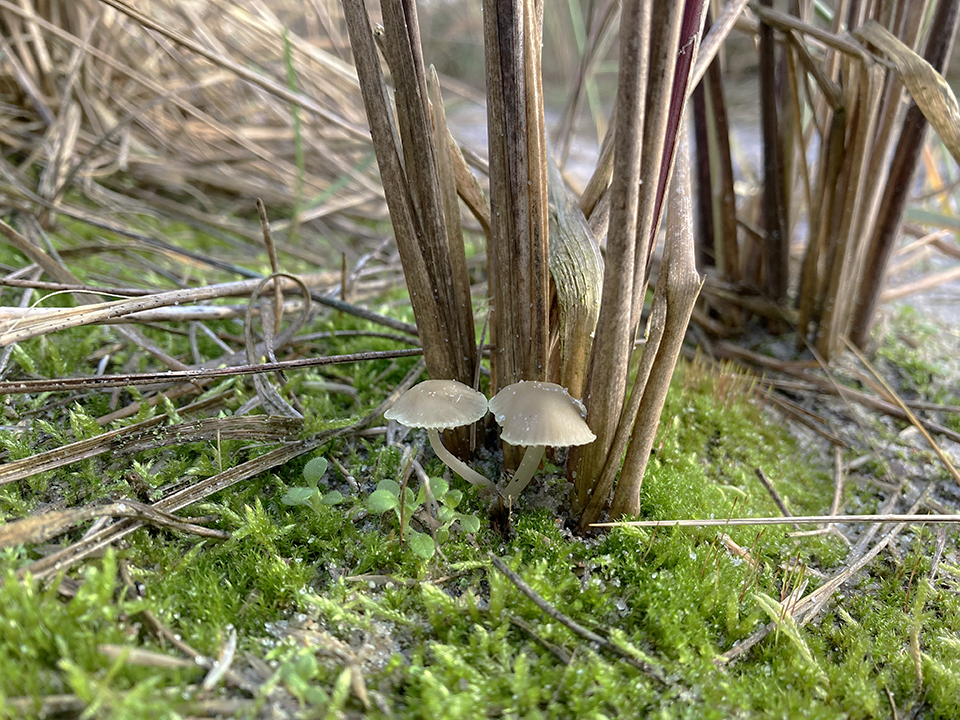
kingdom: Fungi
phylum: Basidiomycota
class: Agaricomycetes
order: Agaricales
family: Mycenaceae
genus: Mycena
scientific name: Mycena chlorantha
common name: klit-huesvamp
